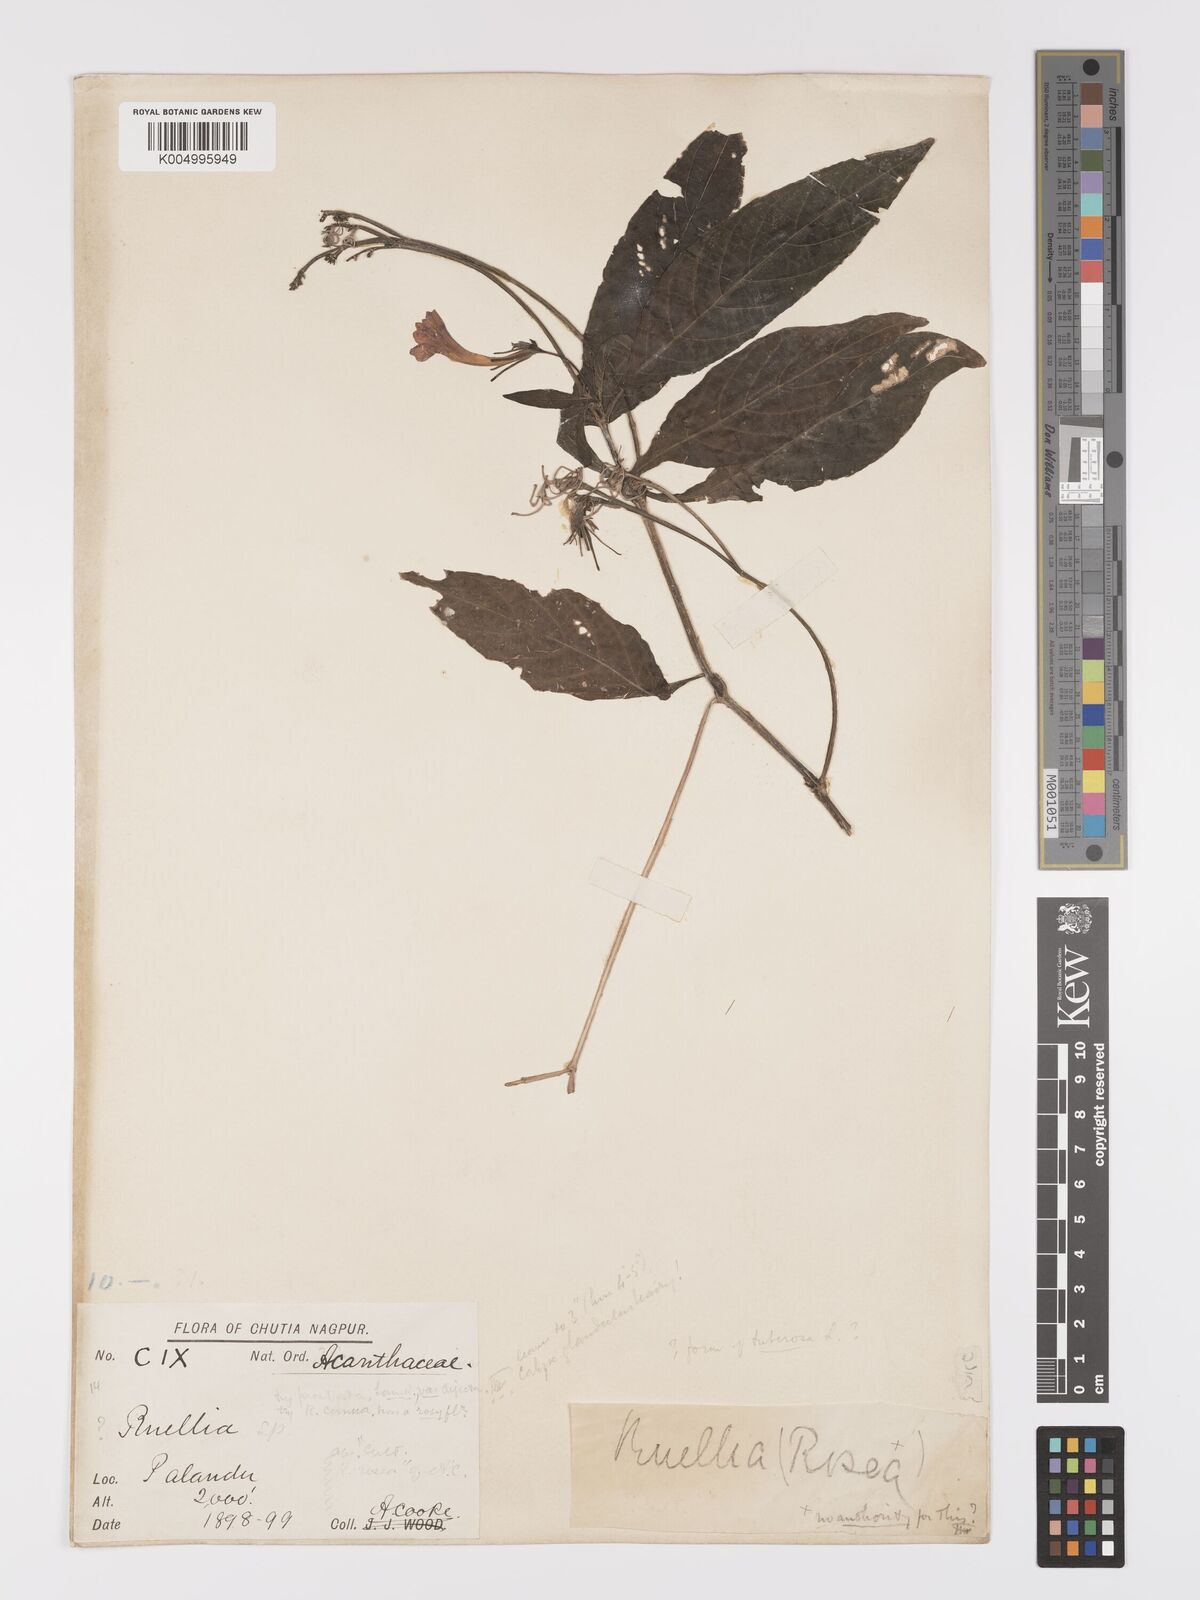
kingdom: Plantae
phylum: Tracheophyta
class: Magnoliopsida
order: Lamiales
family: Acanthaceae
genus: Ruellia
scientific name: Ruellia
